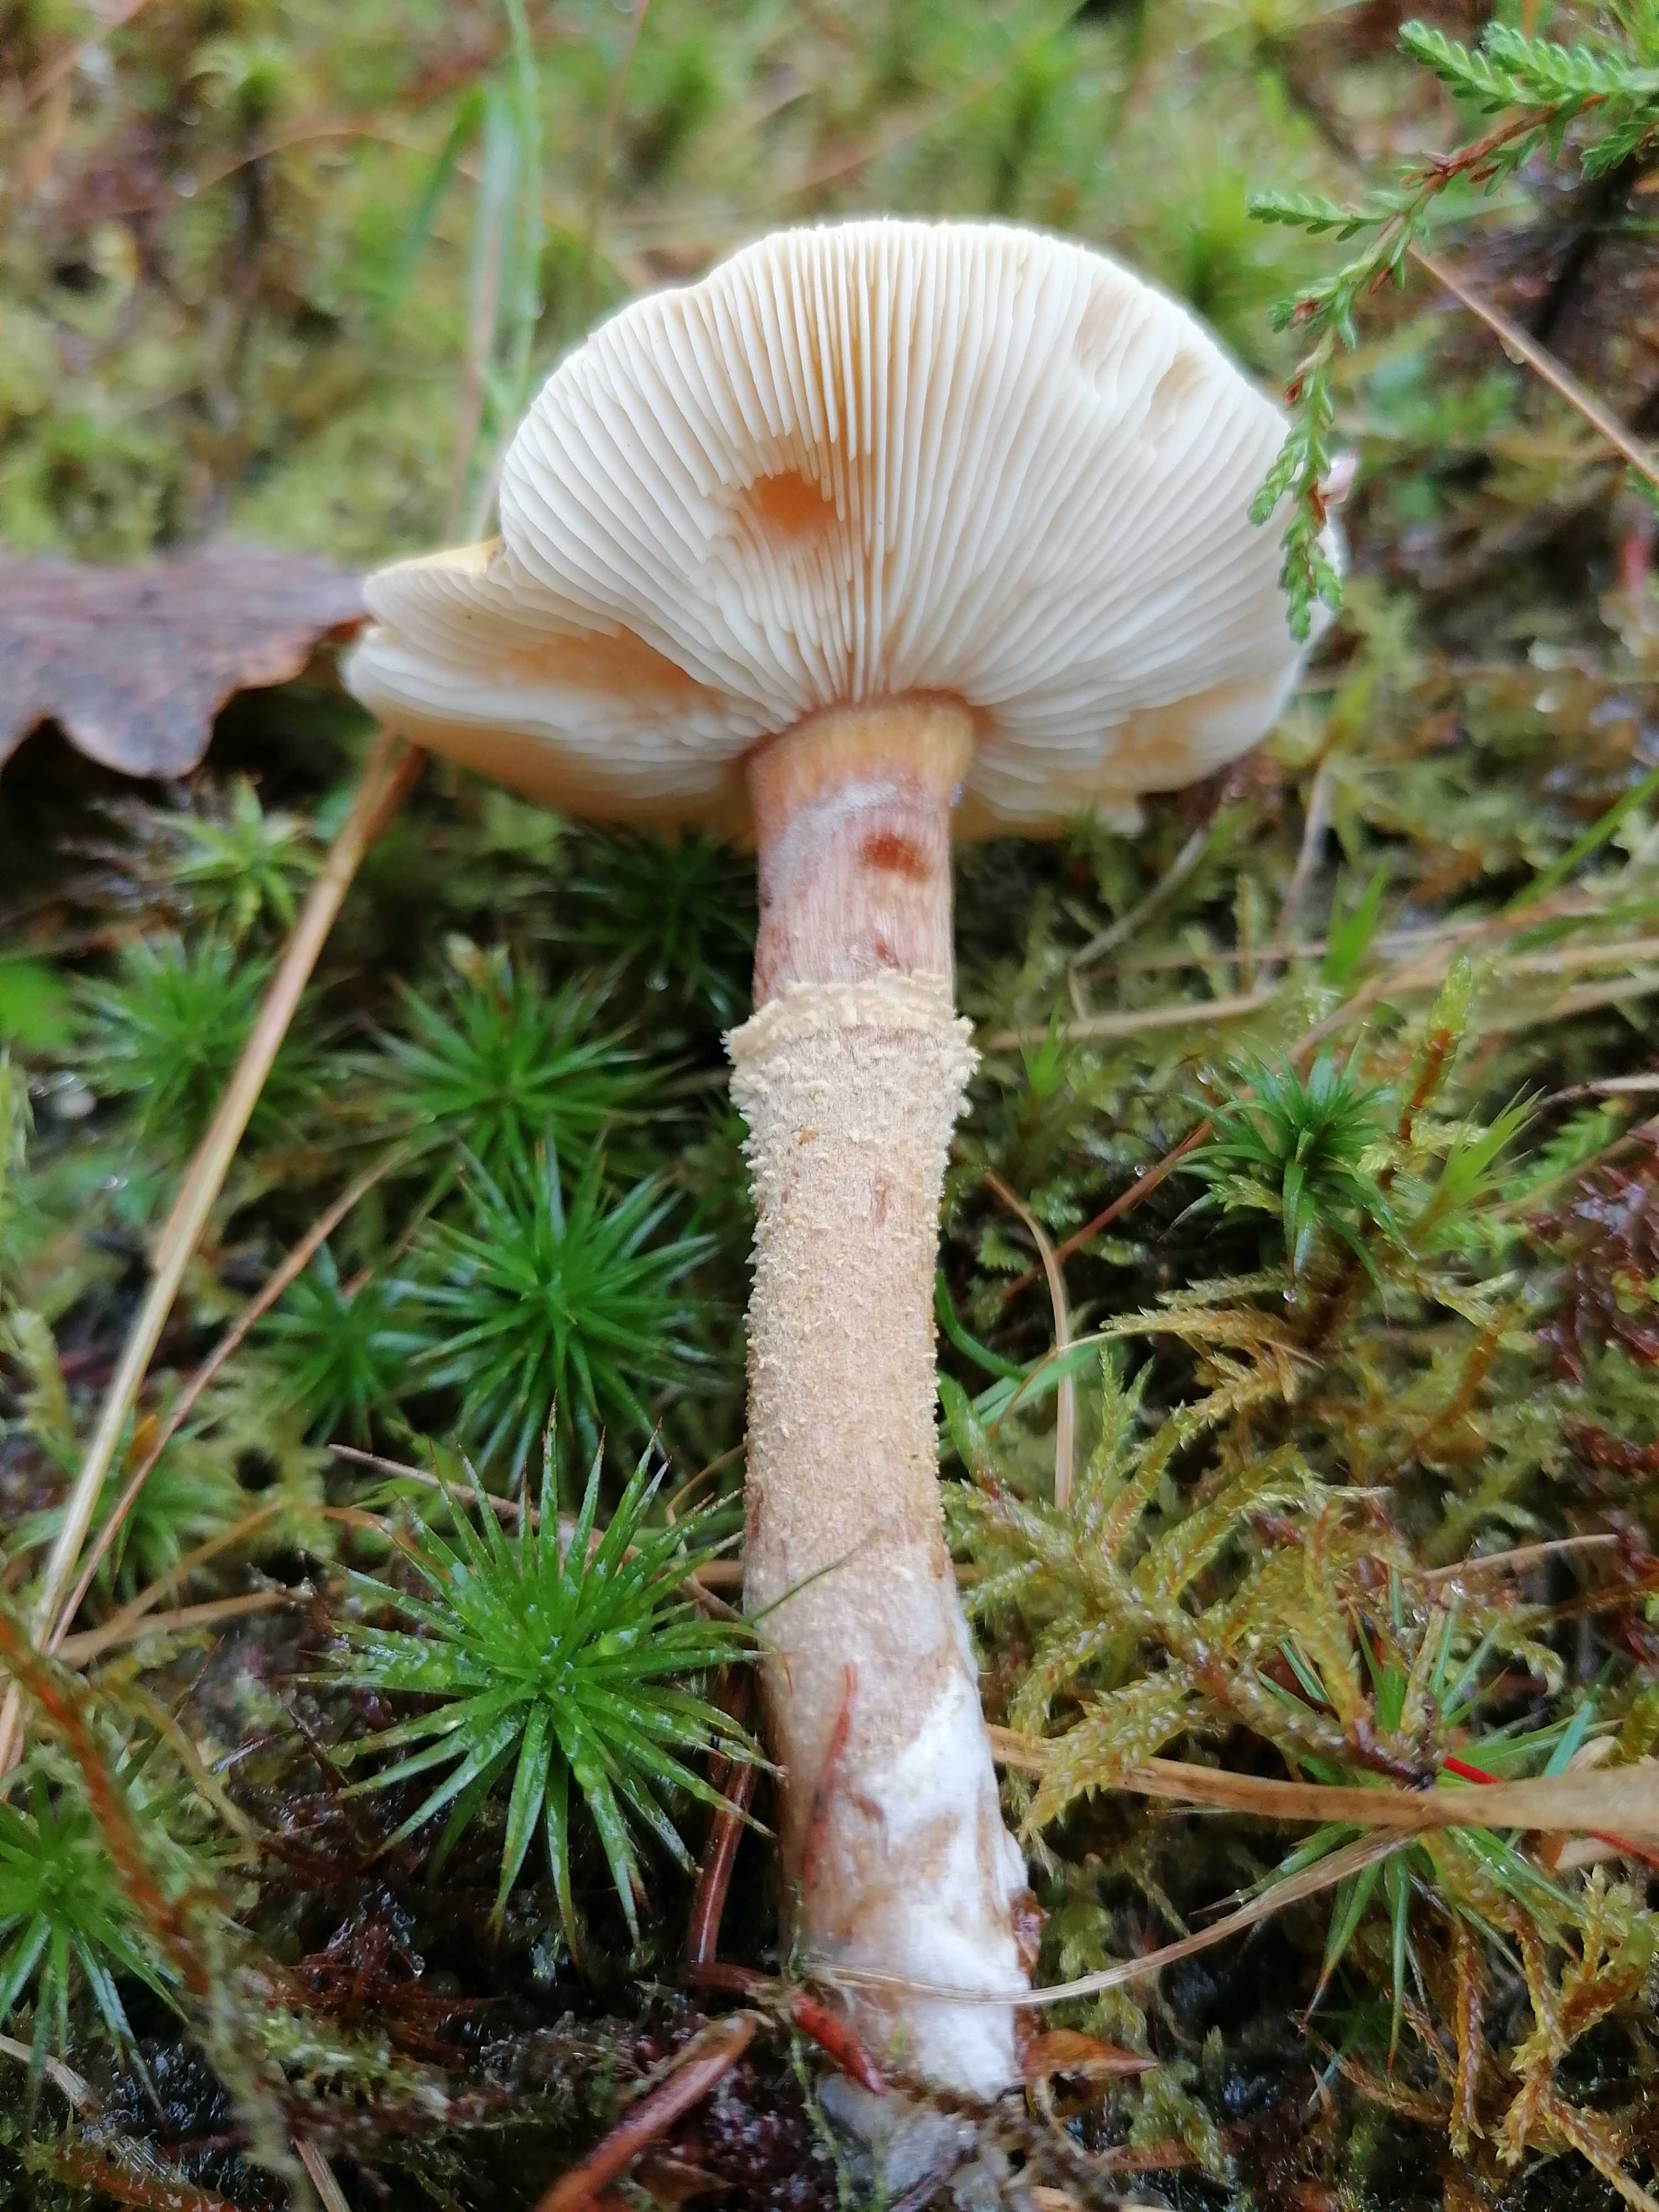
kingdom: Fungi
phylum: Basidiomycota
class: Agaricomycetes
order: Agaricales
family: Tricholomataceae
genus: Cystoderma
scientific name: Cystoderma amianthinum
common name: okkergul grynhat
